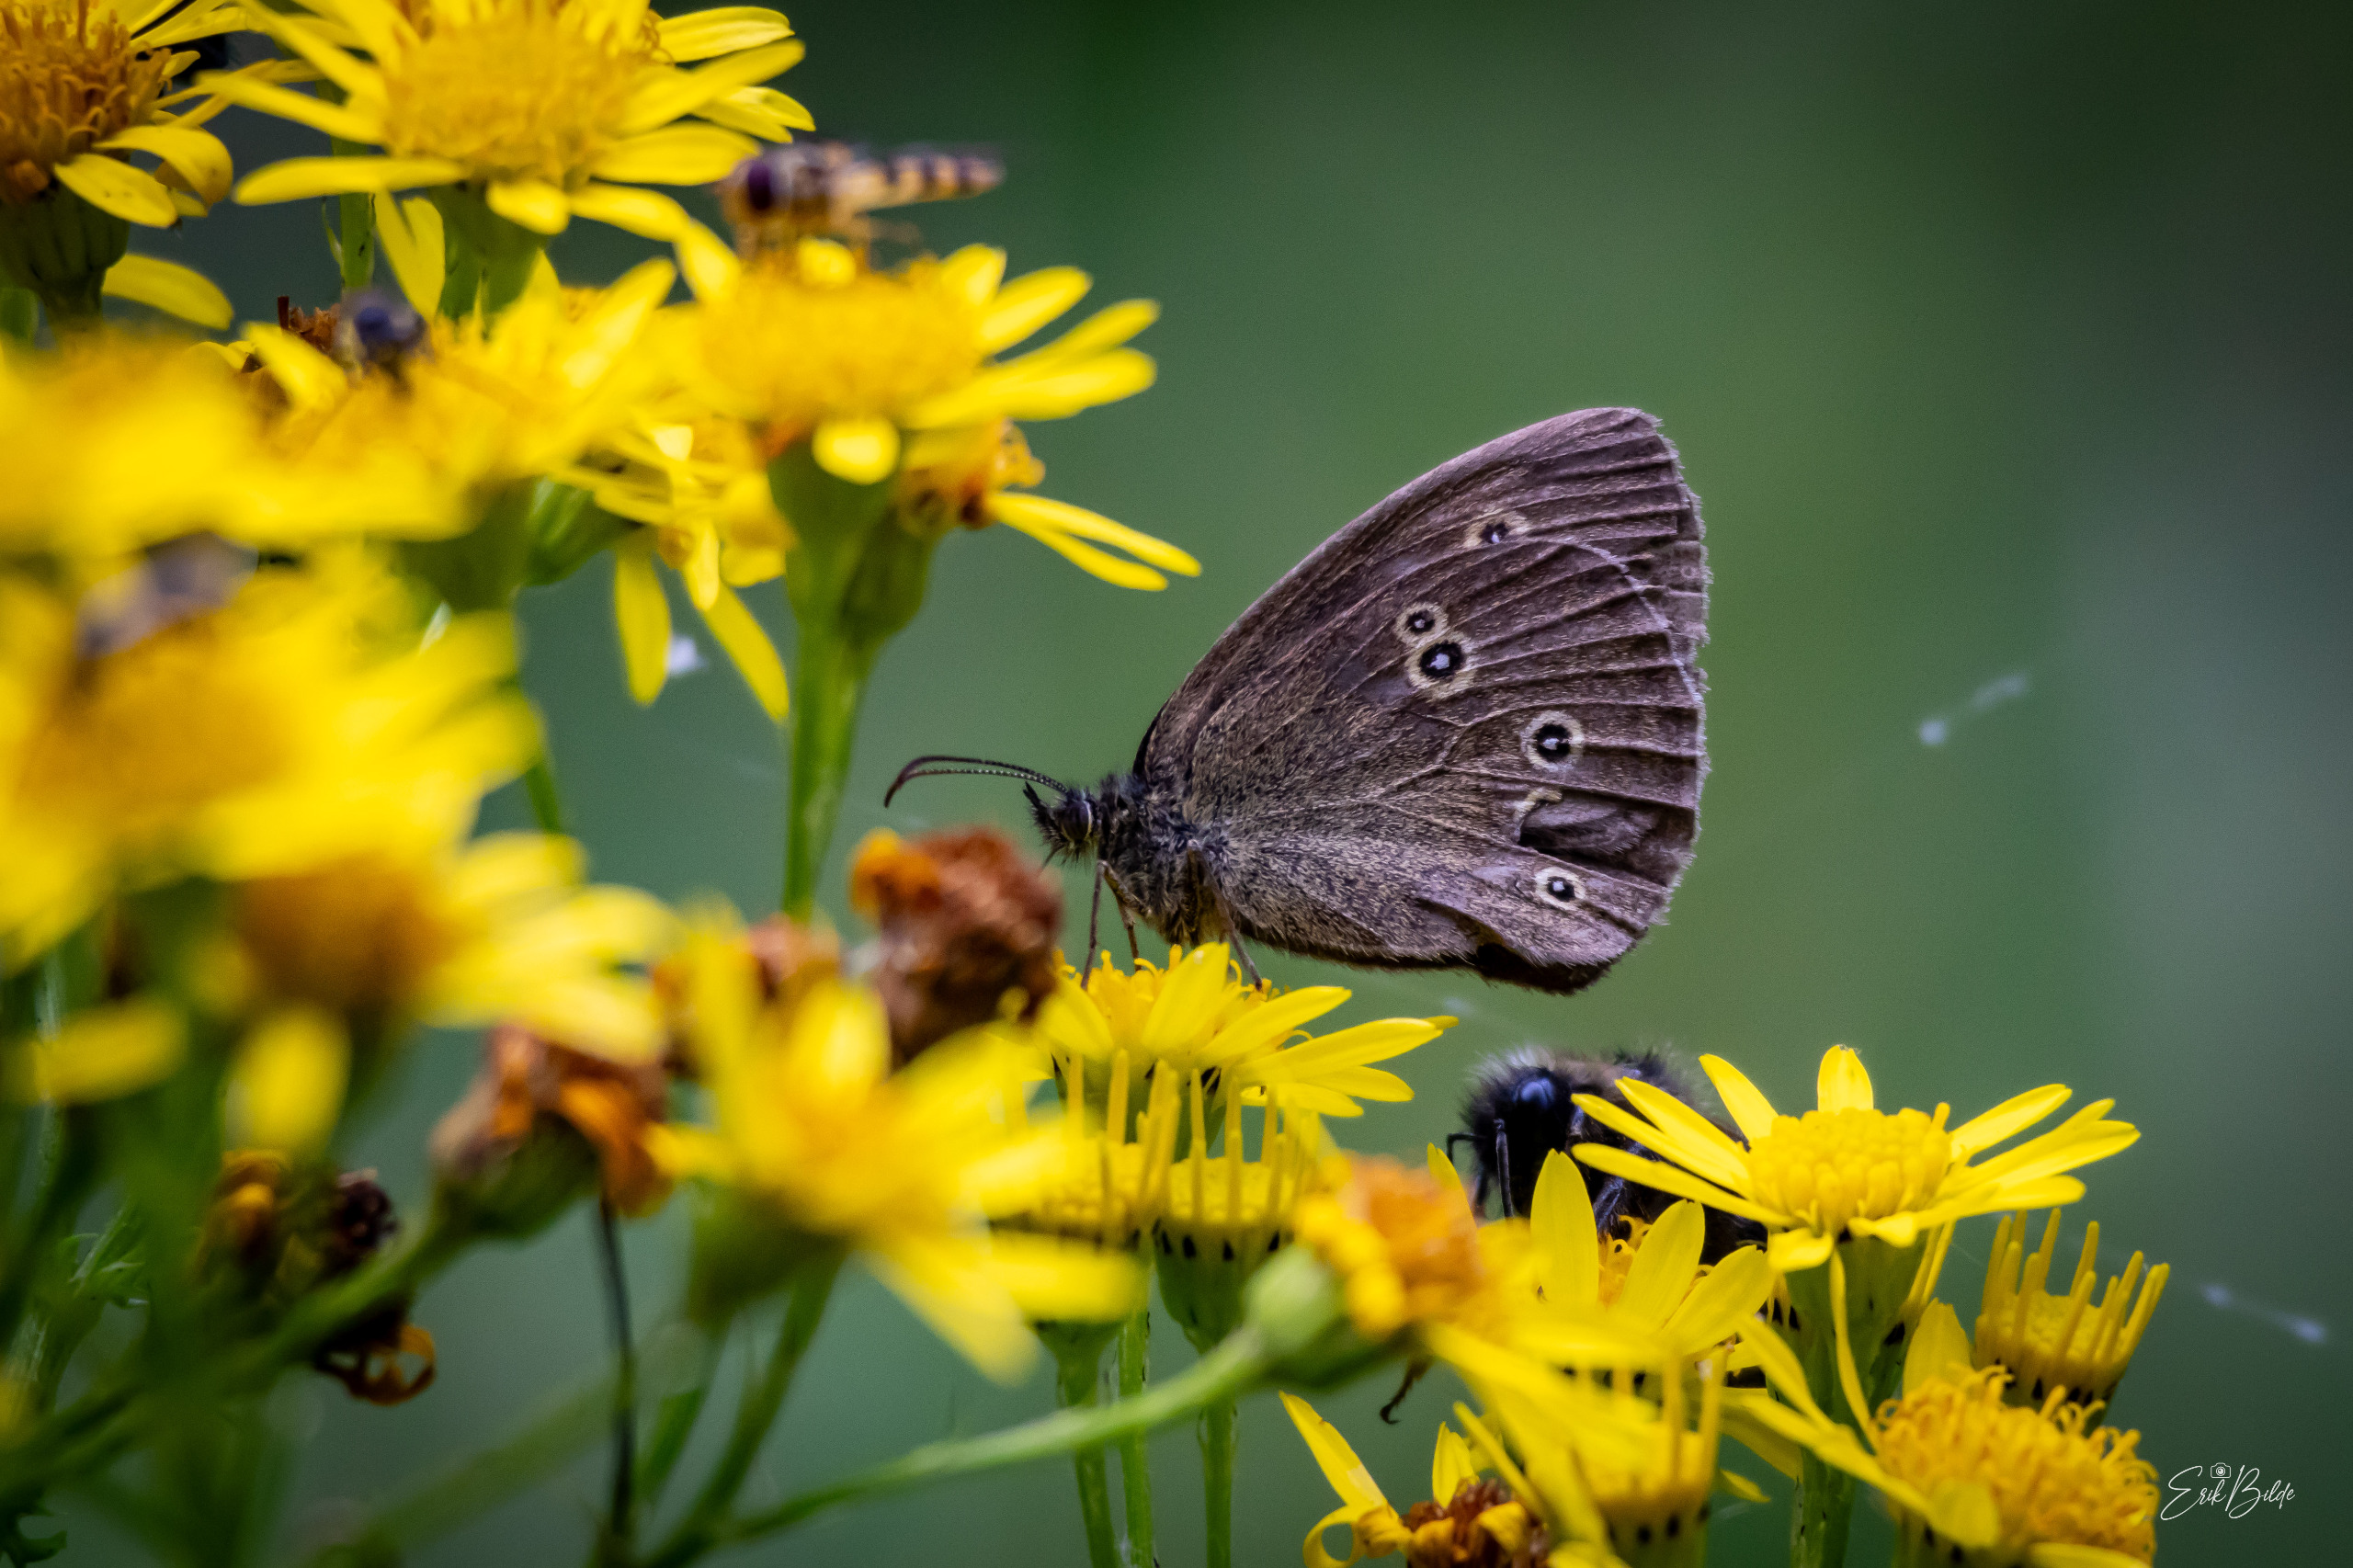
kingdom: Animalia
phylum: Arthropoda
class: Insecta
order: Lepidoptera
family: Nymphalidae
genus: Aphantopus
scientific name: Aphantopus hyperantus
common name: Engrandøje
